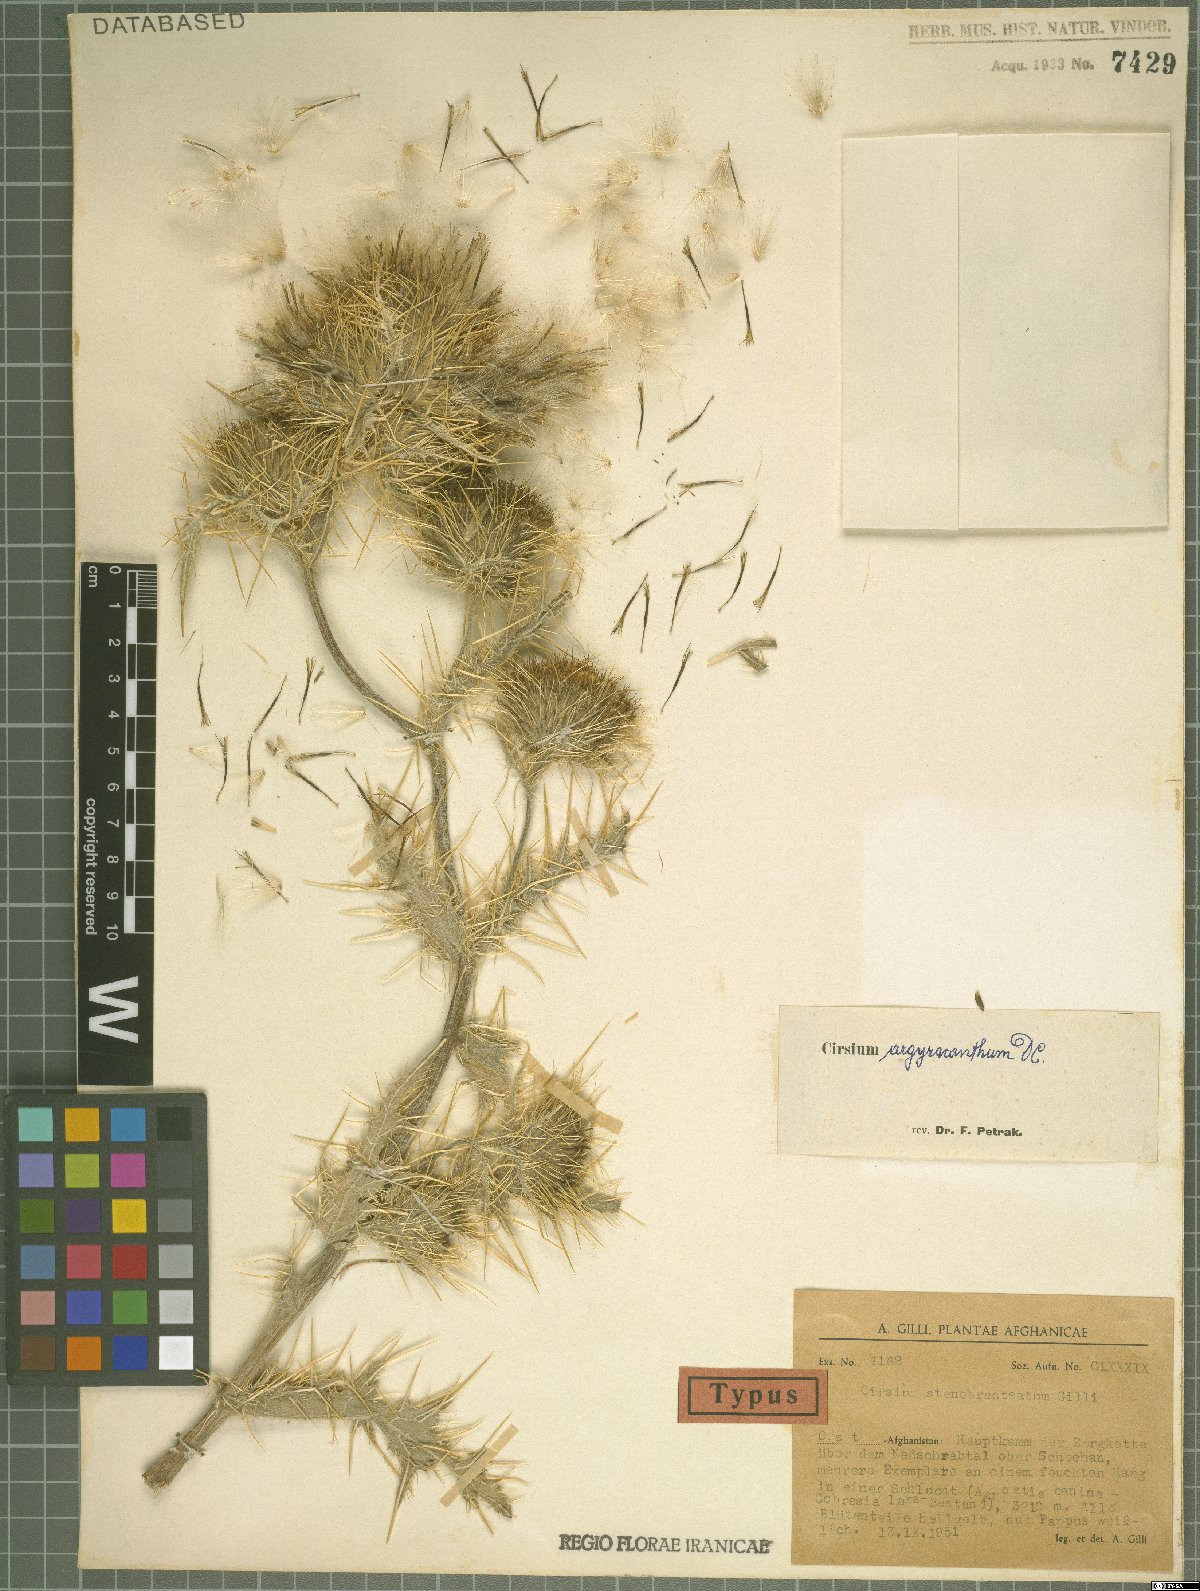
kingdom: Plantae
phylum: Tracheophyta
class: Magnoliopsida
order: Asterales
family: Asteraceae
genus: Cirsium
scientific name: Cirsium argyracanthum
